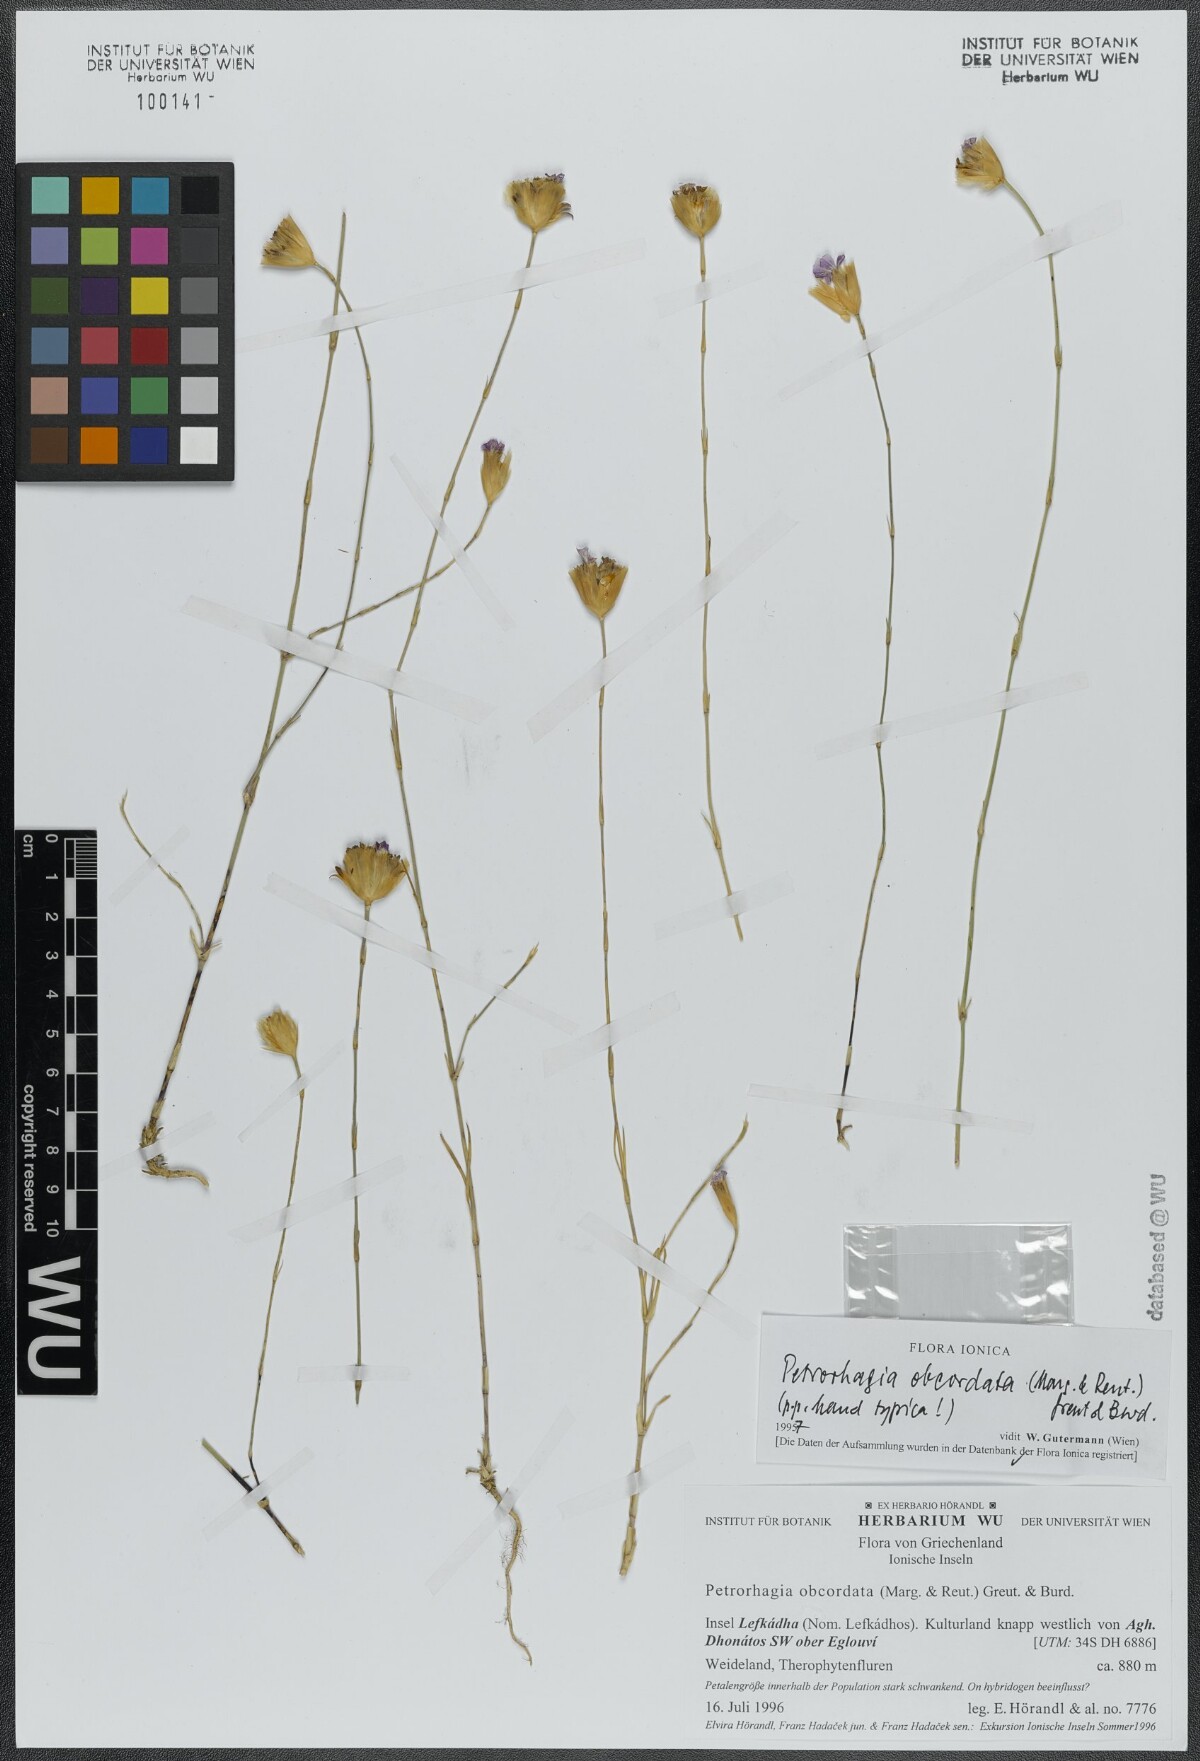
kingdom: Plantae
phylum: Tracheophyta
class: Magnoliopsida
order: Caryophyllales
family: Caryophyllaceae
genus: Petrorhagia
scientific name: Petrorhagia obcordata
